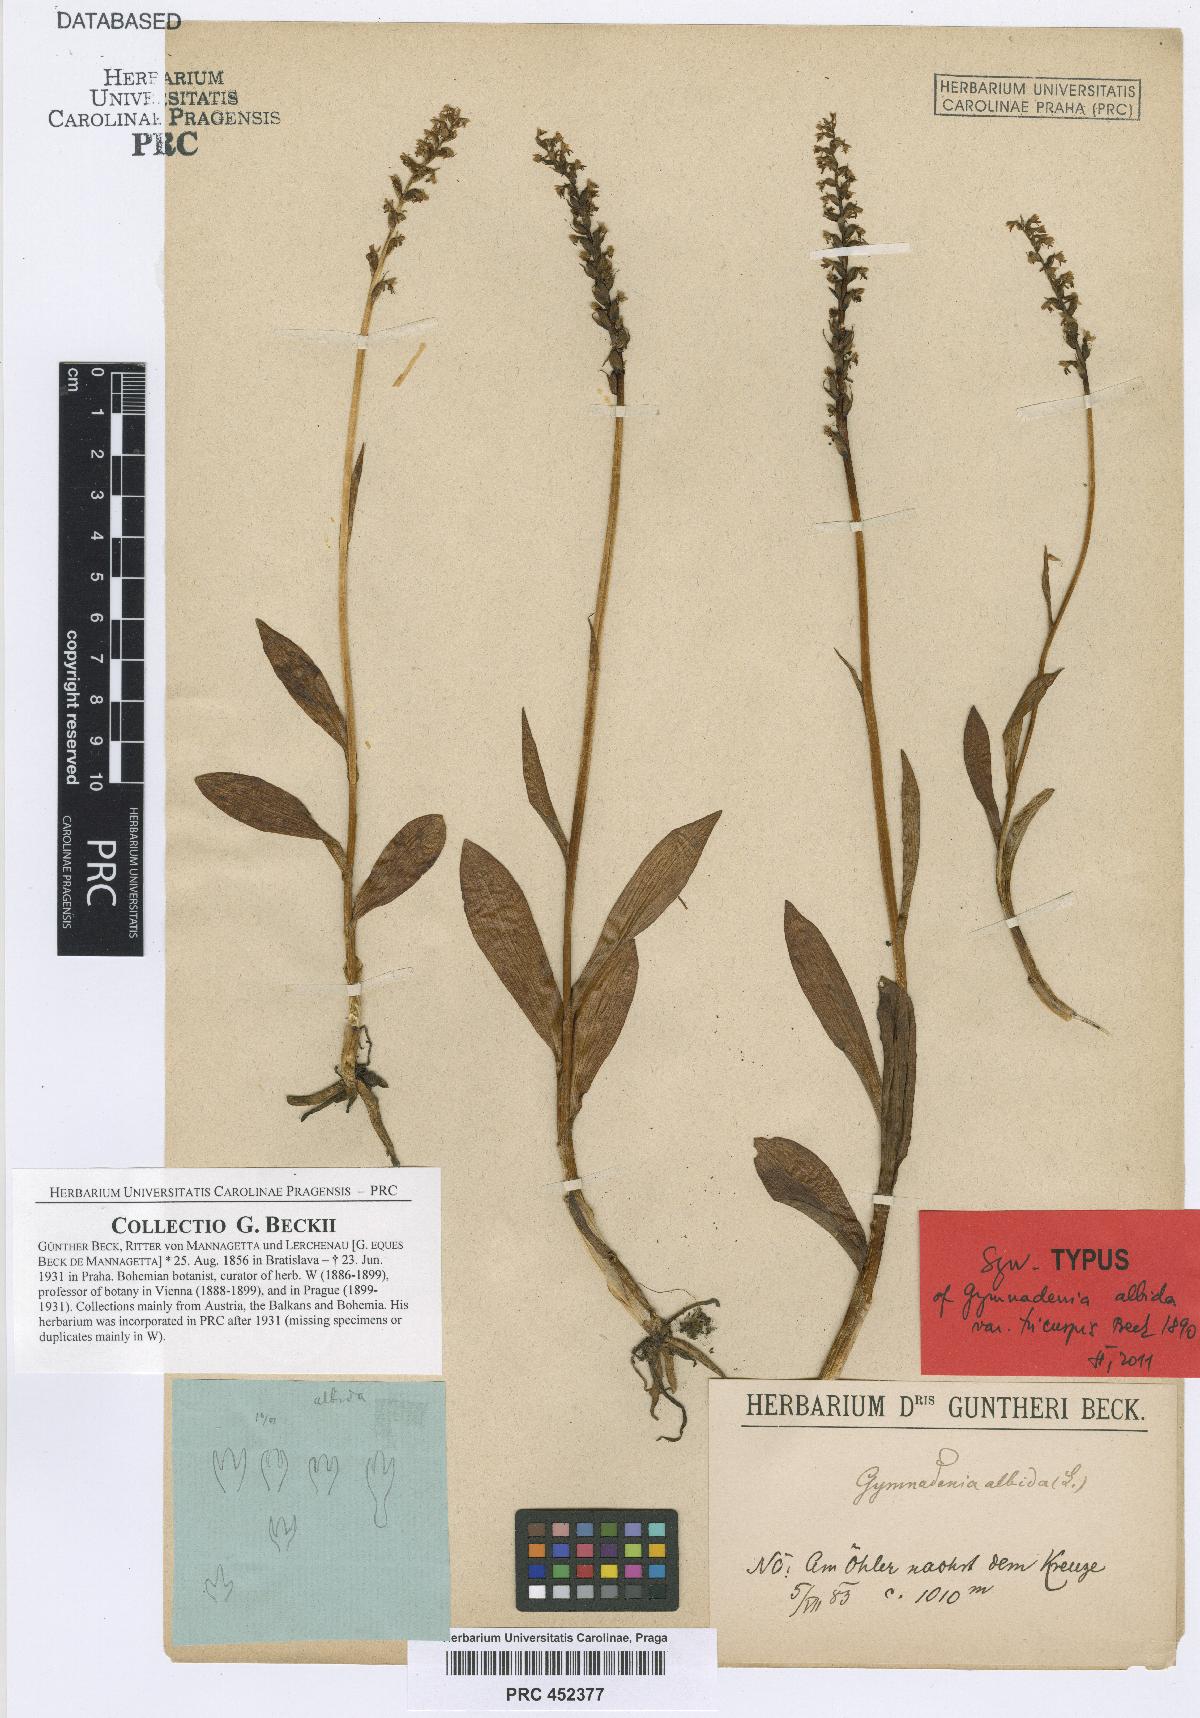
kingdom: Plantae
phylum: Tracheophyta
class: Liliopsida
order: Asparagales
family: Orchidaceae
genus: Pseudorchis
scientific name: Pseudorchis albida
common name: Small-white orchid
